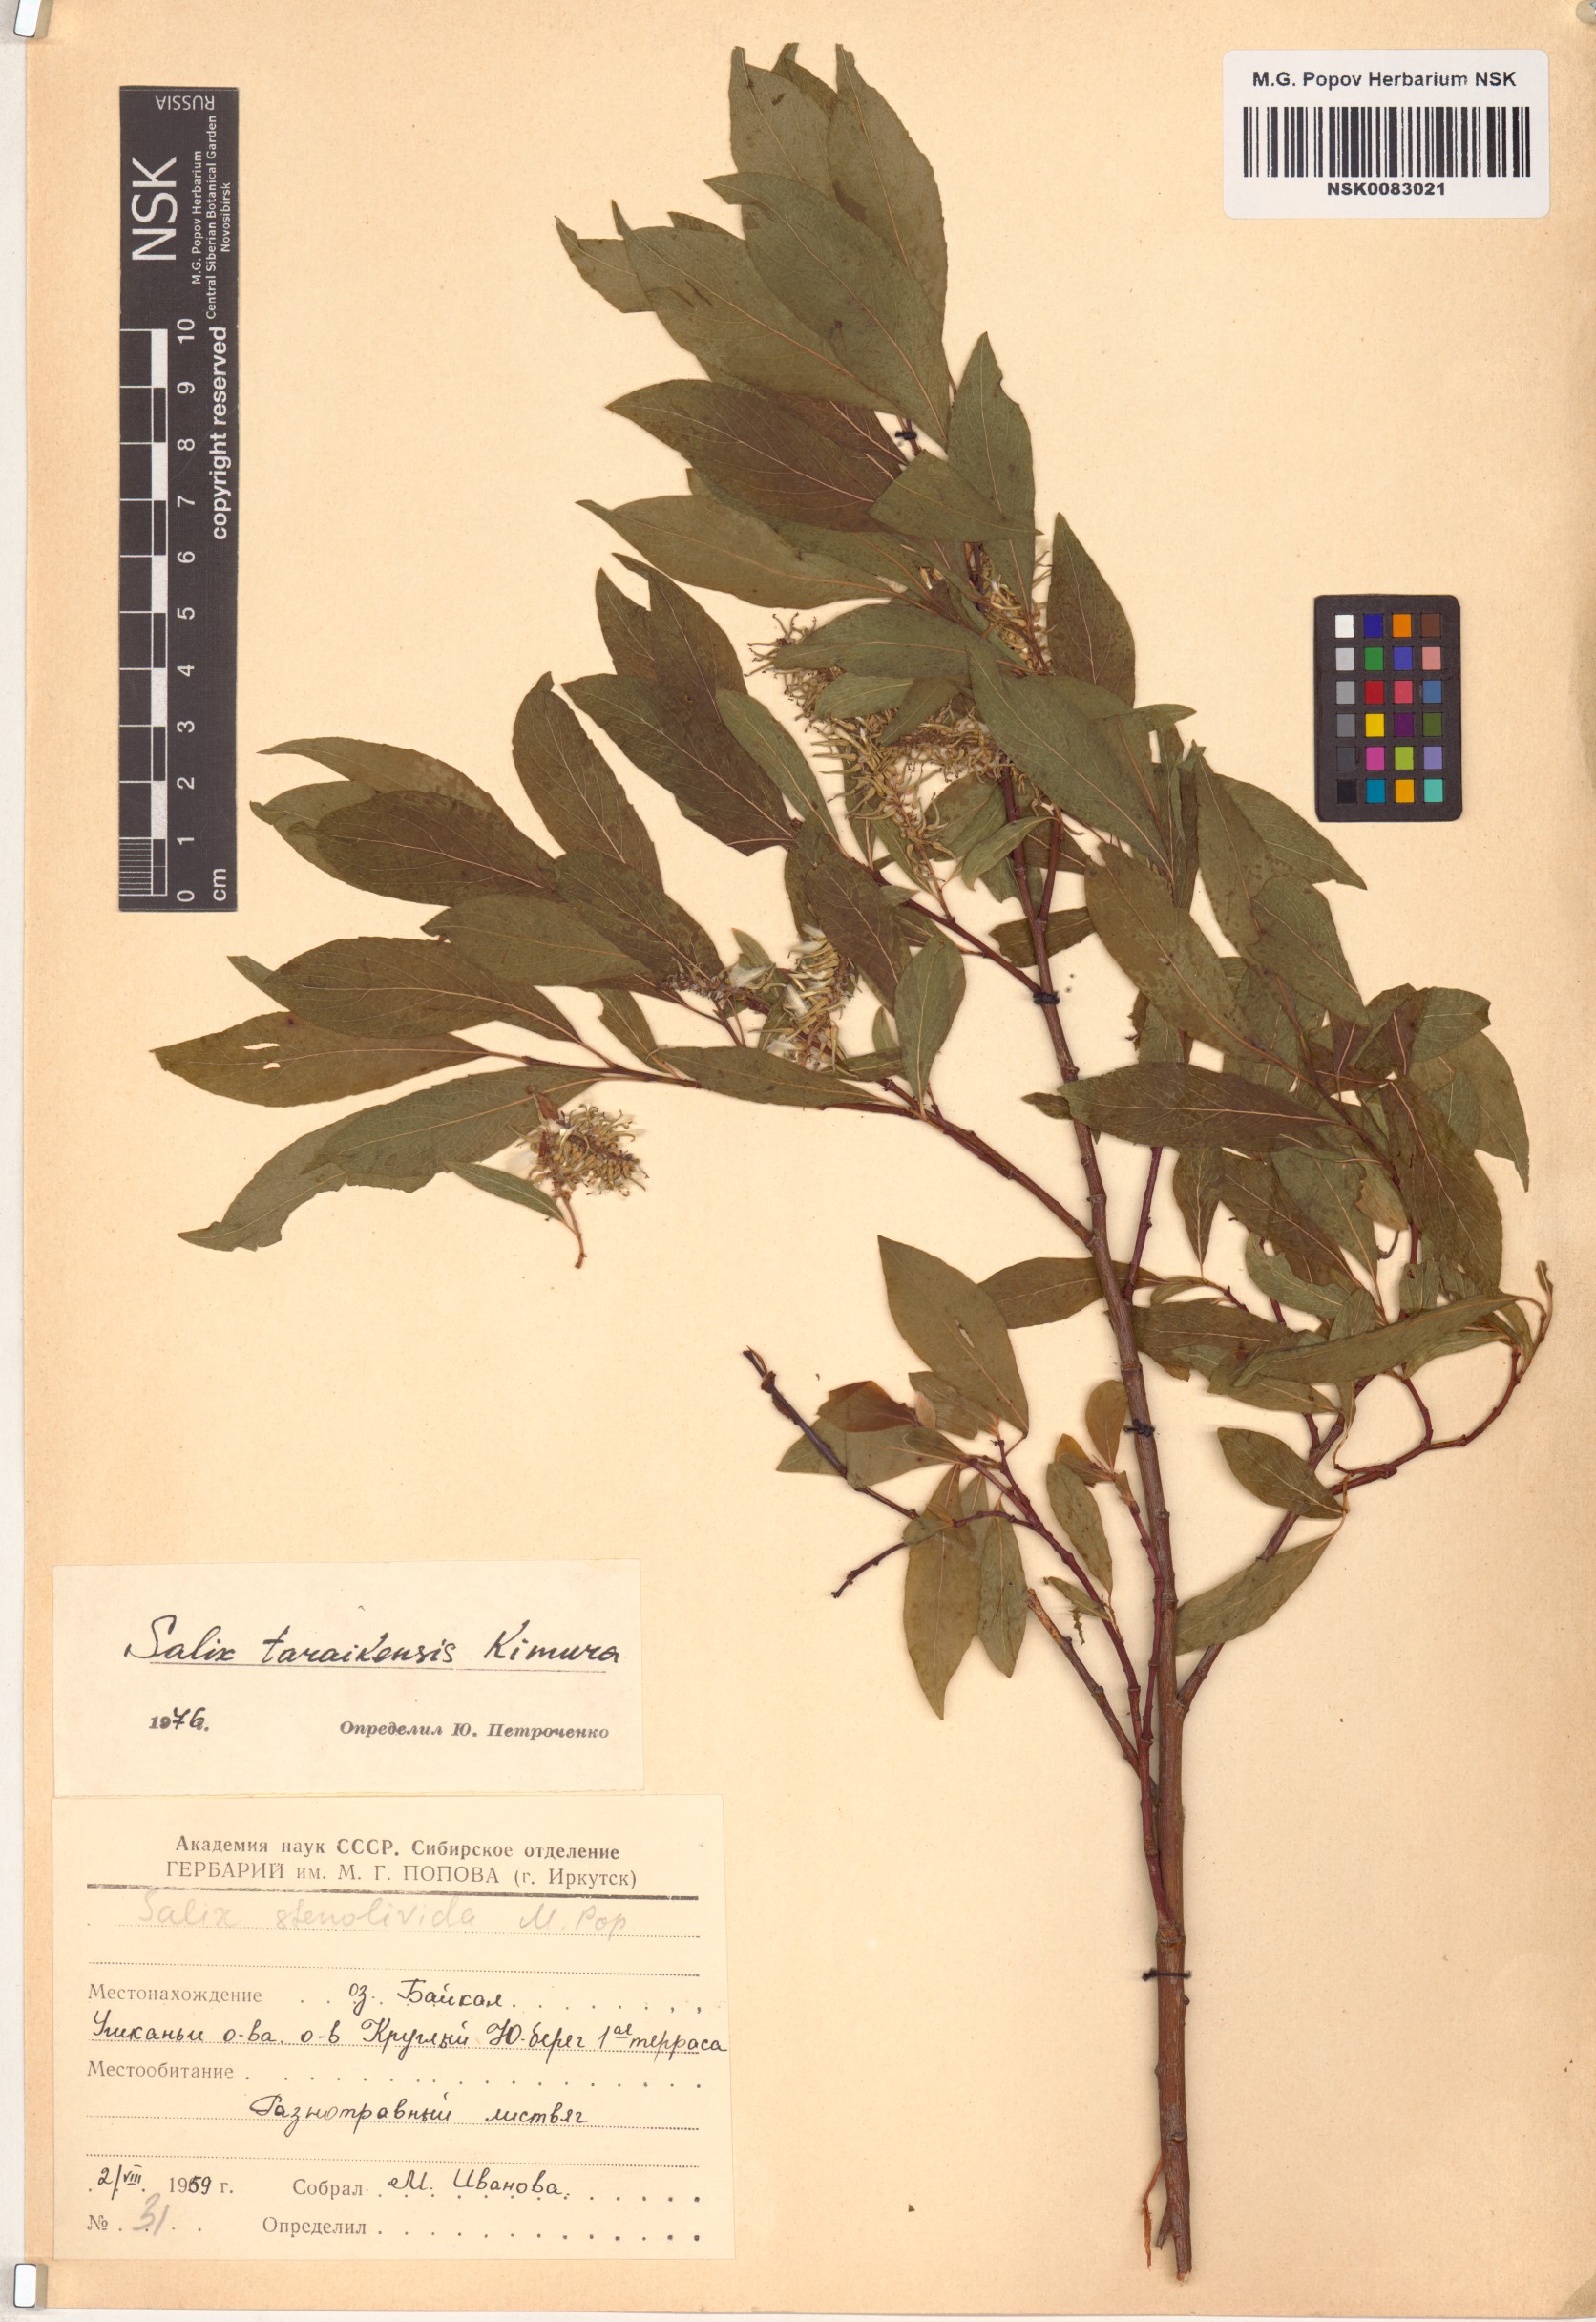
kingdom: Plantae
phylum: Tracheophyta
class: Magnoliopsida
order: Malpighiales
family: Salicaceae
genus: Salix
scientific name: Salix taraikensis
